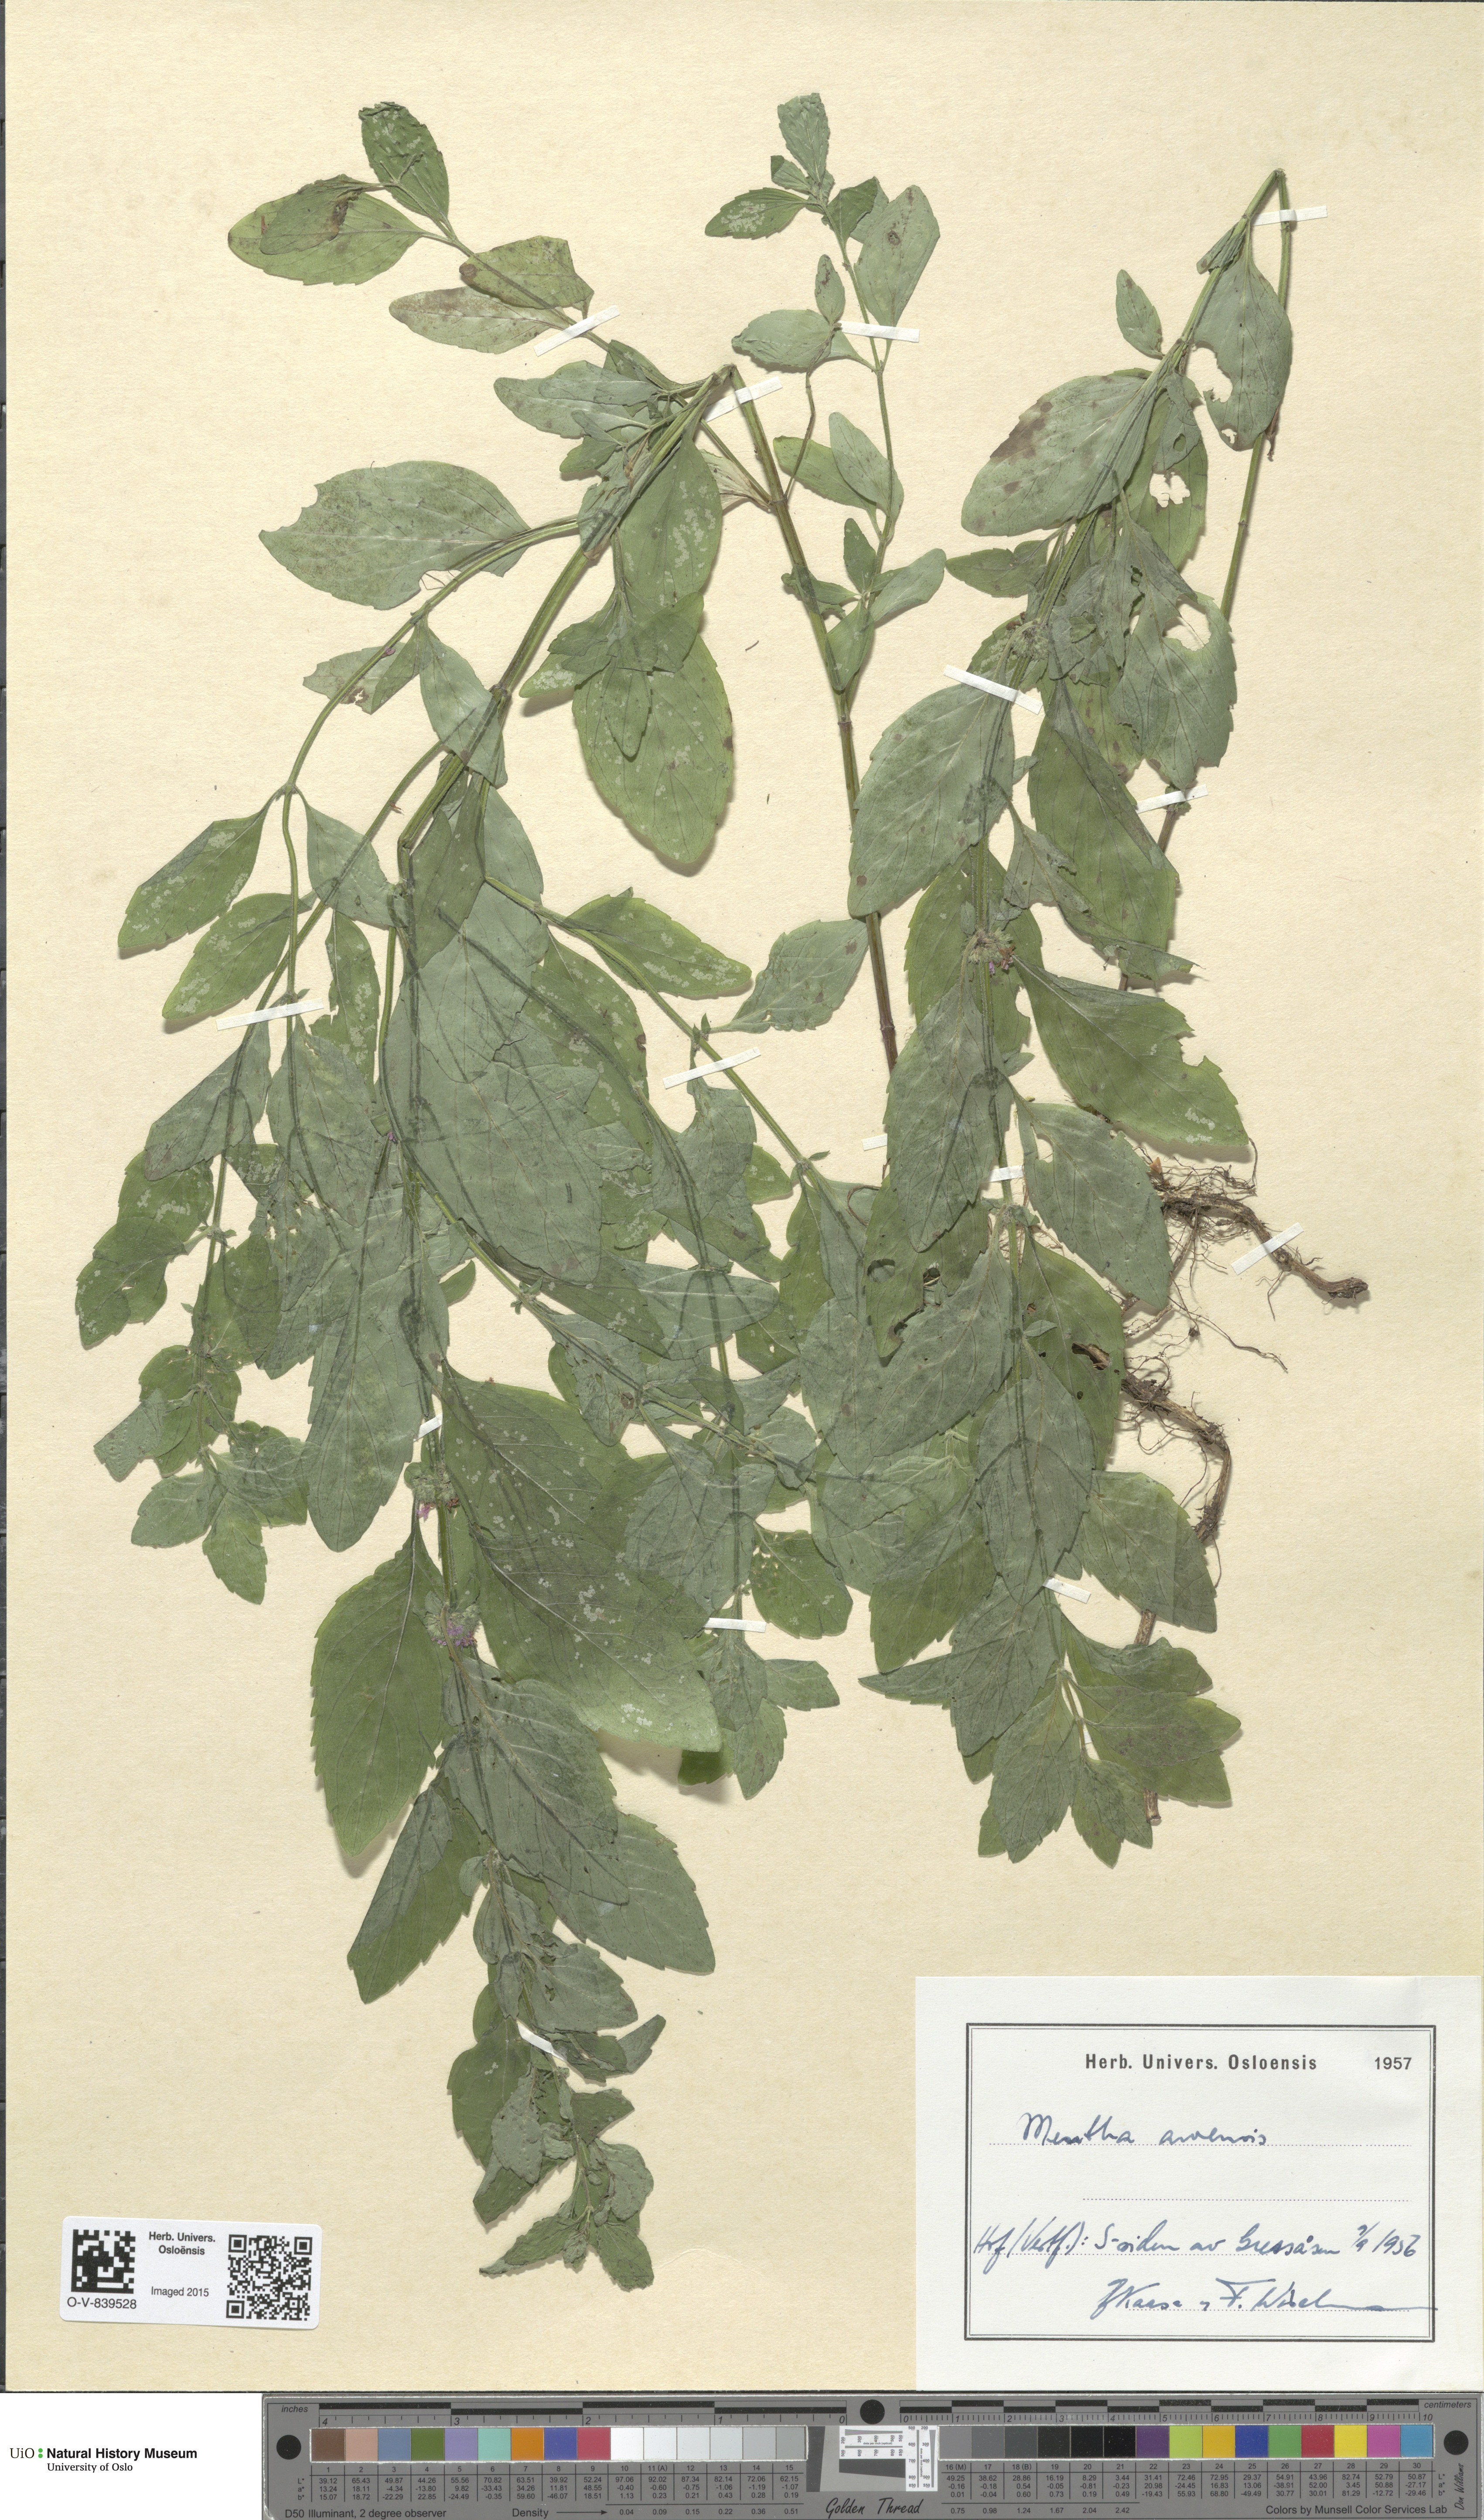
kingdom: Plantae
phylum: Tracheophyta
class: Magnoliopsida
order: Lamiales
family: Lamiaceae
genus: Mentha
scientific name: Mentha arvensis
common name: Corn mint
